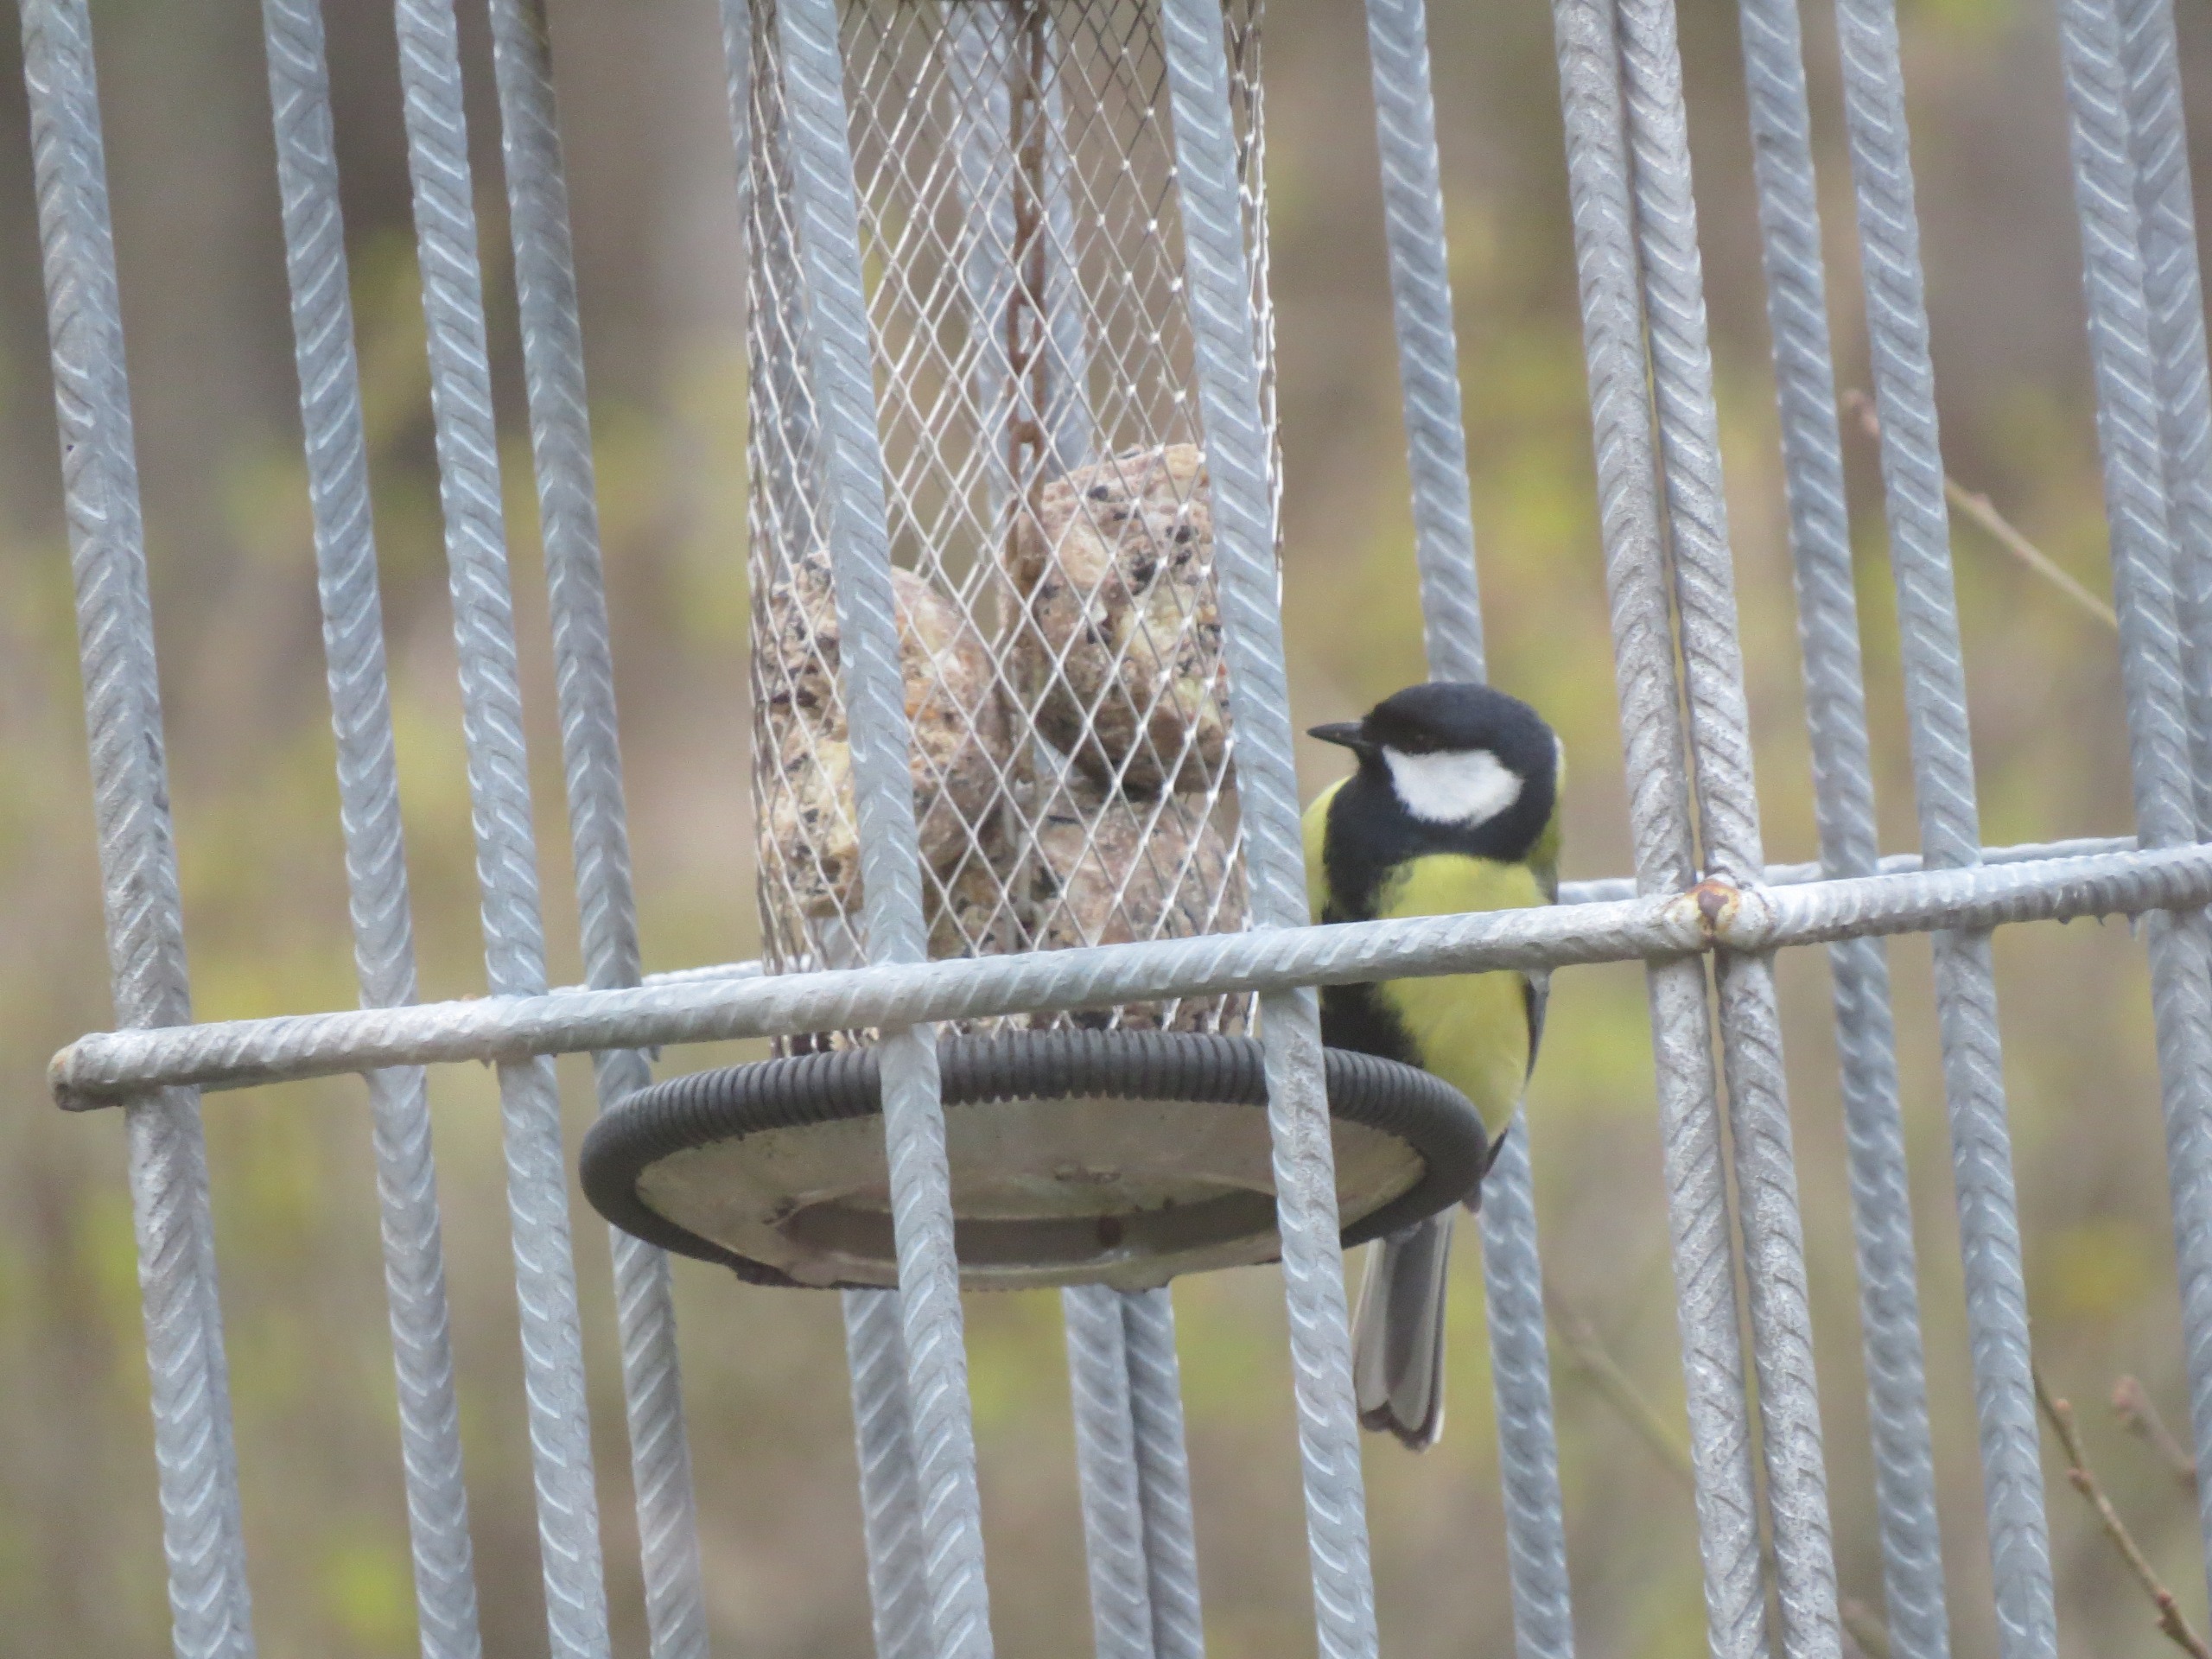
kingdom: Animalia
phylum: Chordata
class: Aves
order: Passeriformes
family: Paridae
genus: Parus
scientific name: Parus major
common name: Musvit
